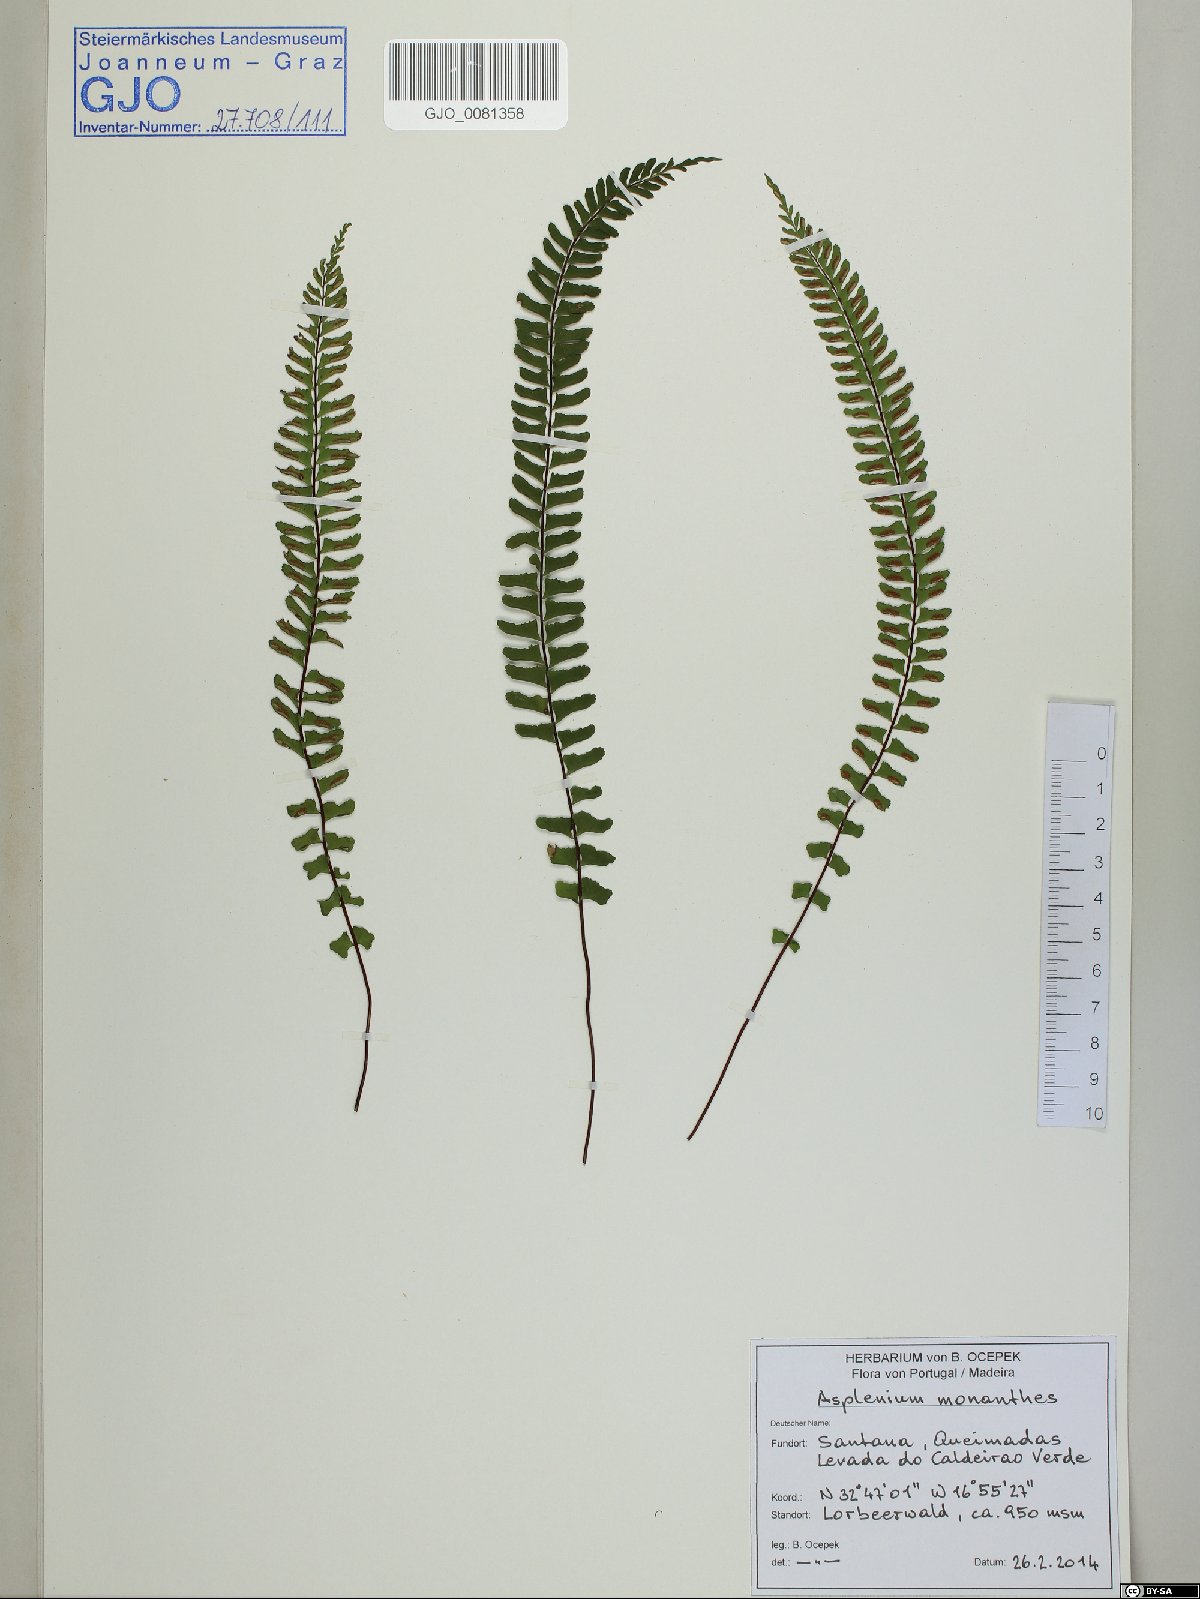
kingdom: Plantae
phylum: Tracheophyta
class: Polypodiopsida
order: Polypodiales
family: Aspleniaceae
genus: Asplenium
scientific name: Asplenium monanthes
